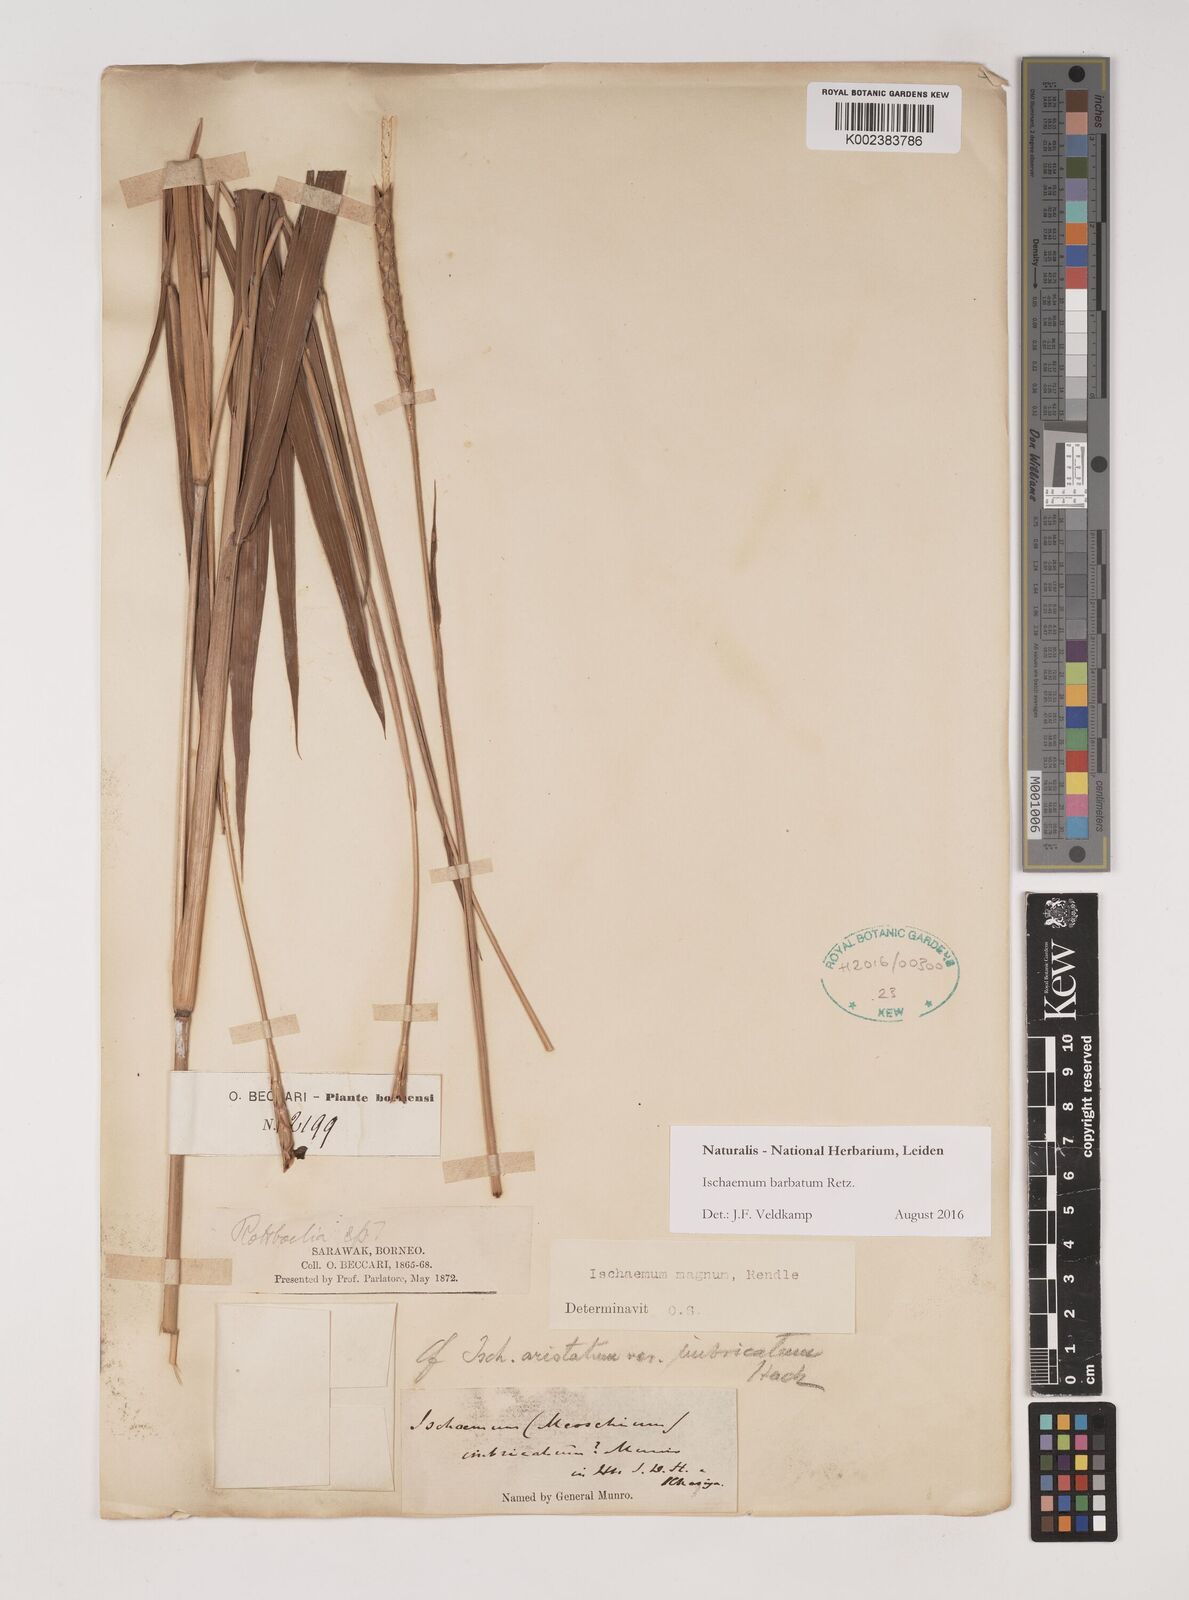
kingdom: Plantae
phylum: Tracheophyta
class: Liliopsida
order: Poales
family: Poaceae
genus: Ischaemum
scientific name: Ischaemum barbatum
